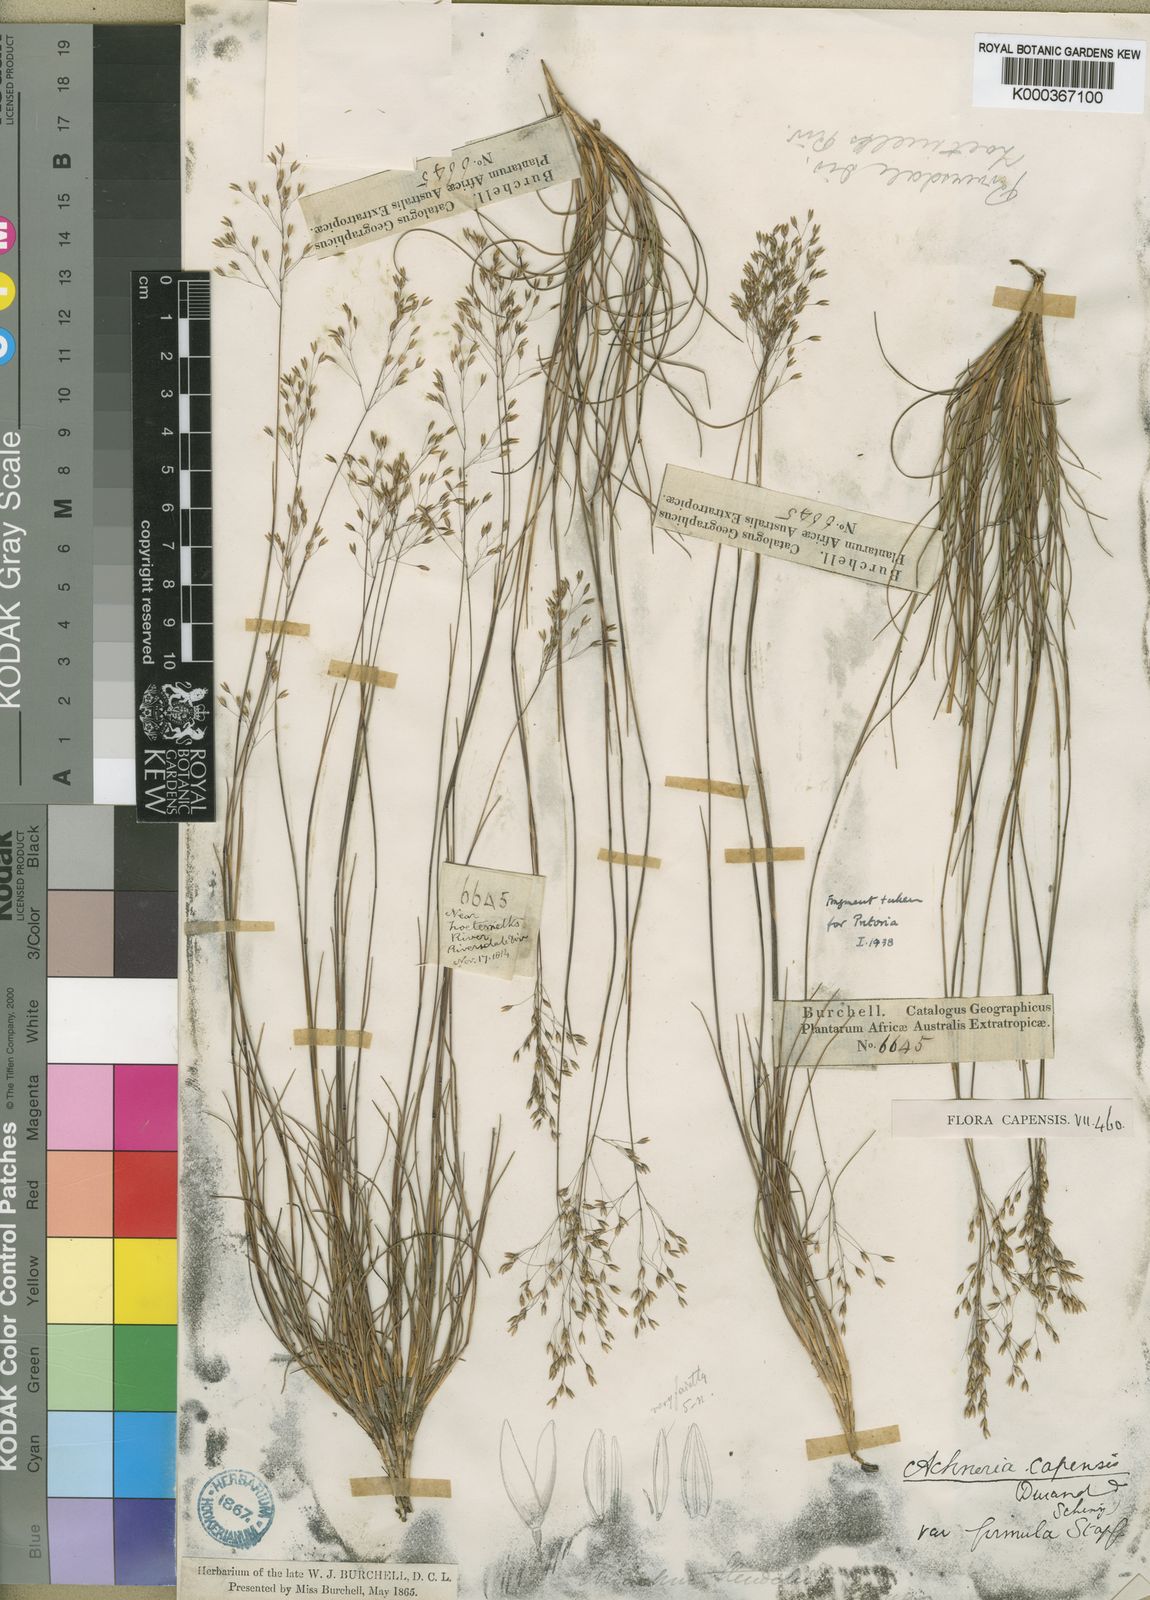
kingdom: Plantae
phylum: Tracheophyta
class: Liliopsida
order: Poales
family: Poaceae
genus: Pentameris
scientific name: Pentameris malouinensis
